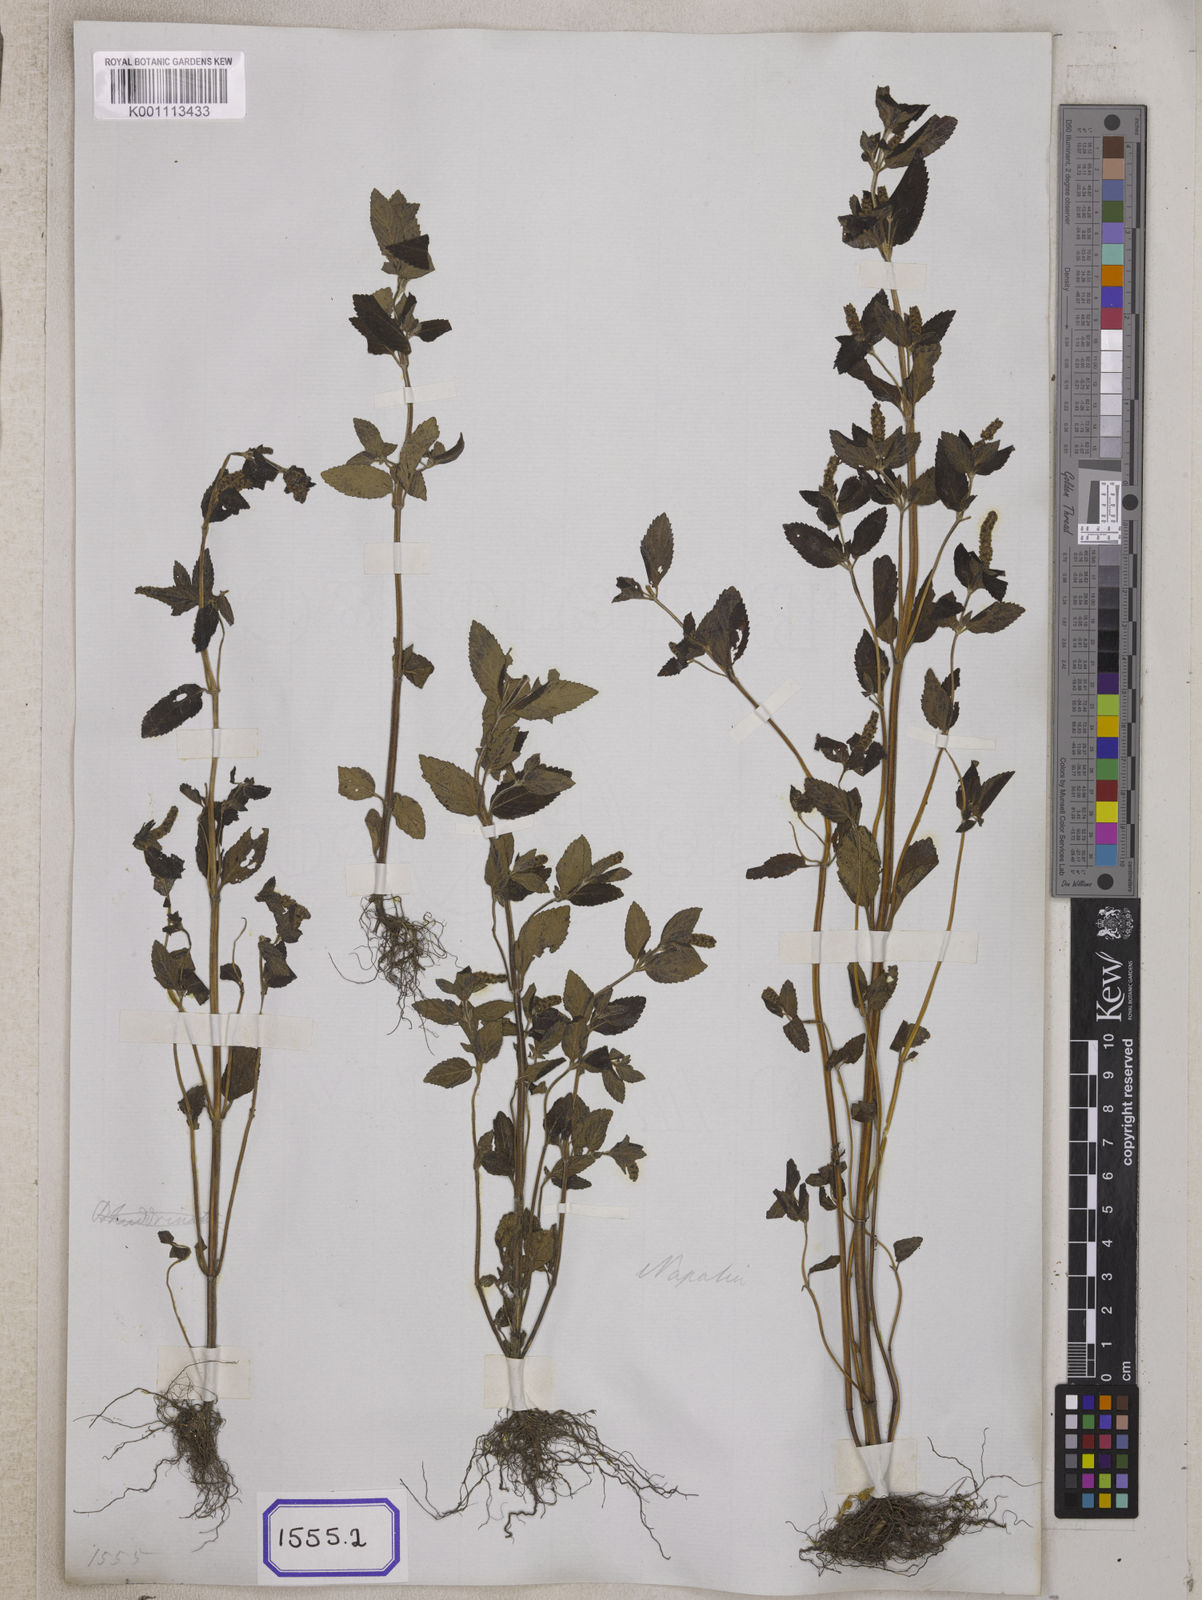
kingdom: Plantae
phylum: Tracheophyta
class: Magnoliopsida
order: Lamiales
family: Lamiaceae
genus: Elsholtzia
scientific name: Elsholtzia eriostachya
